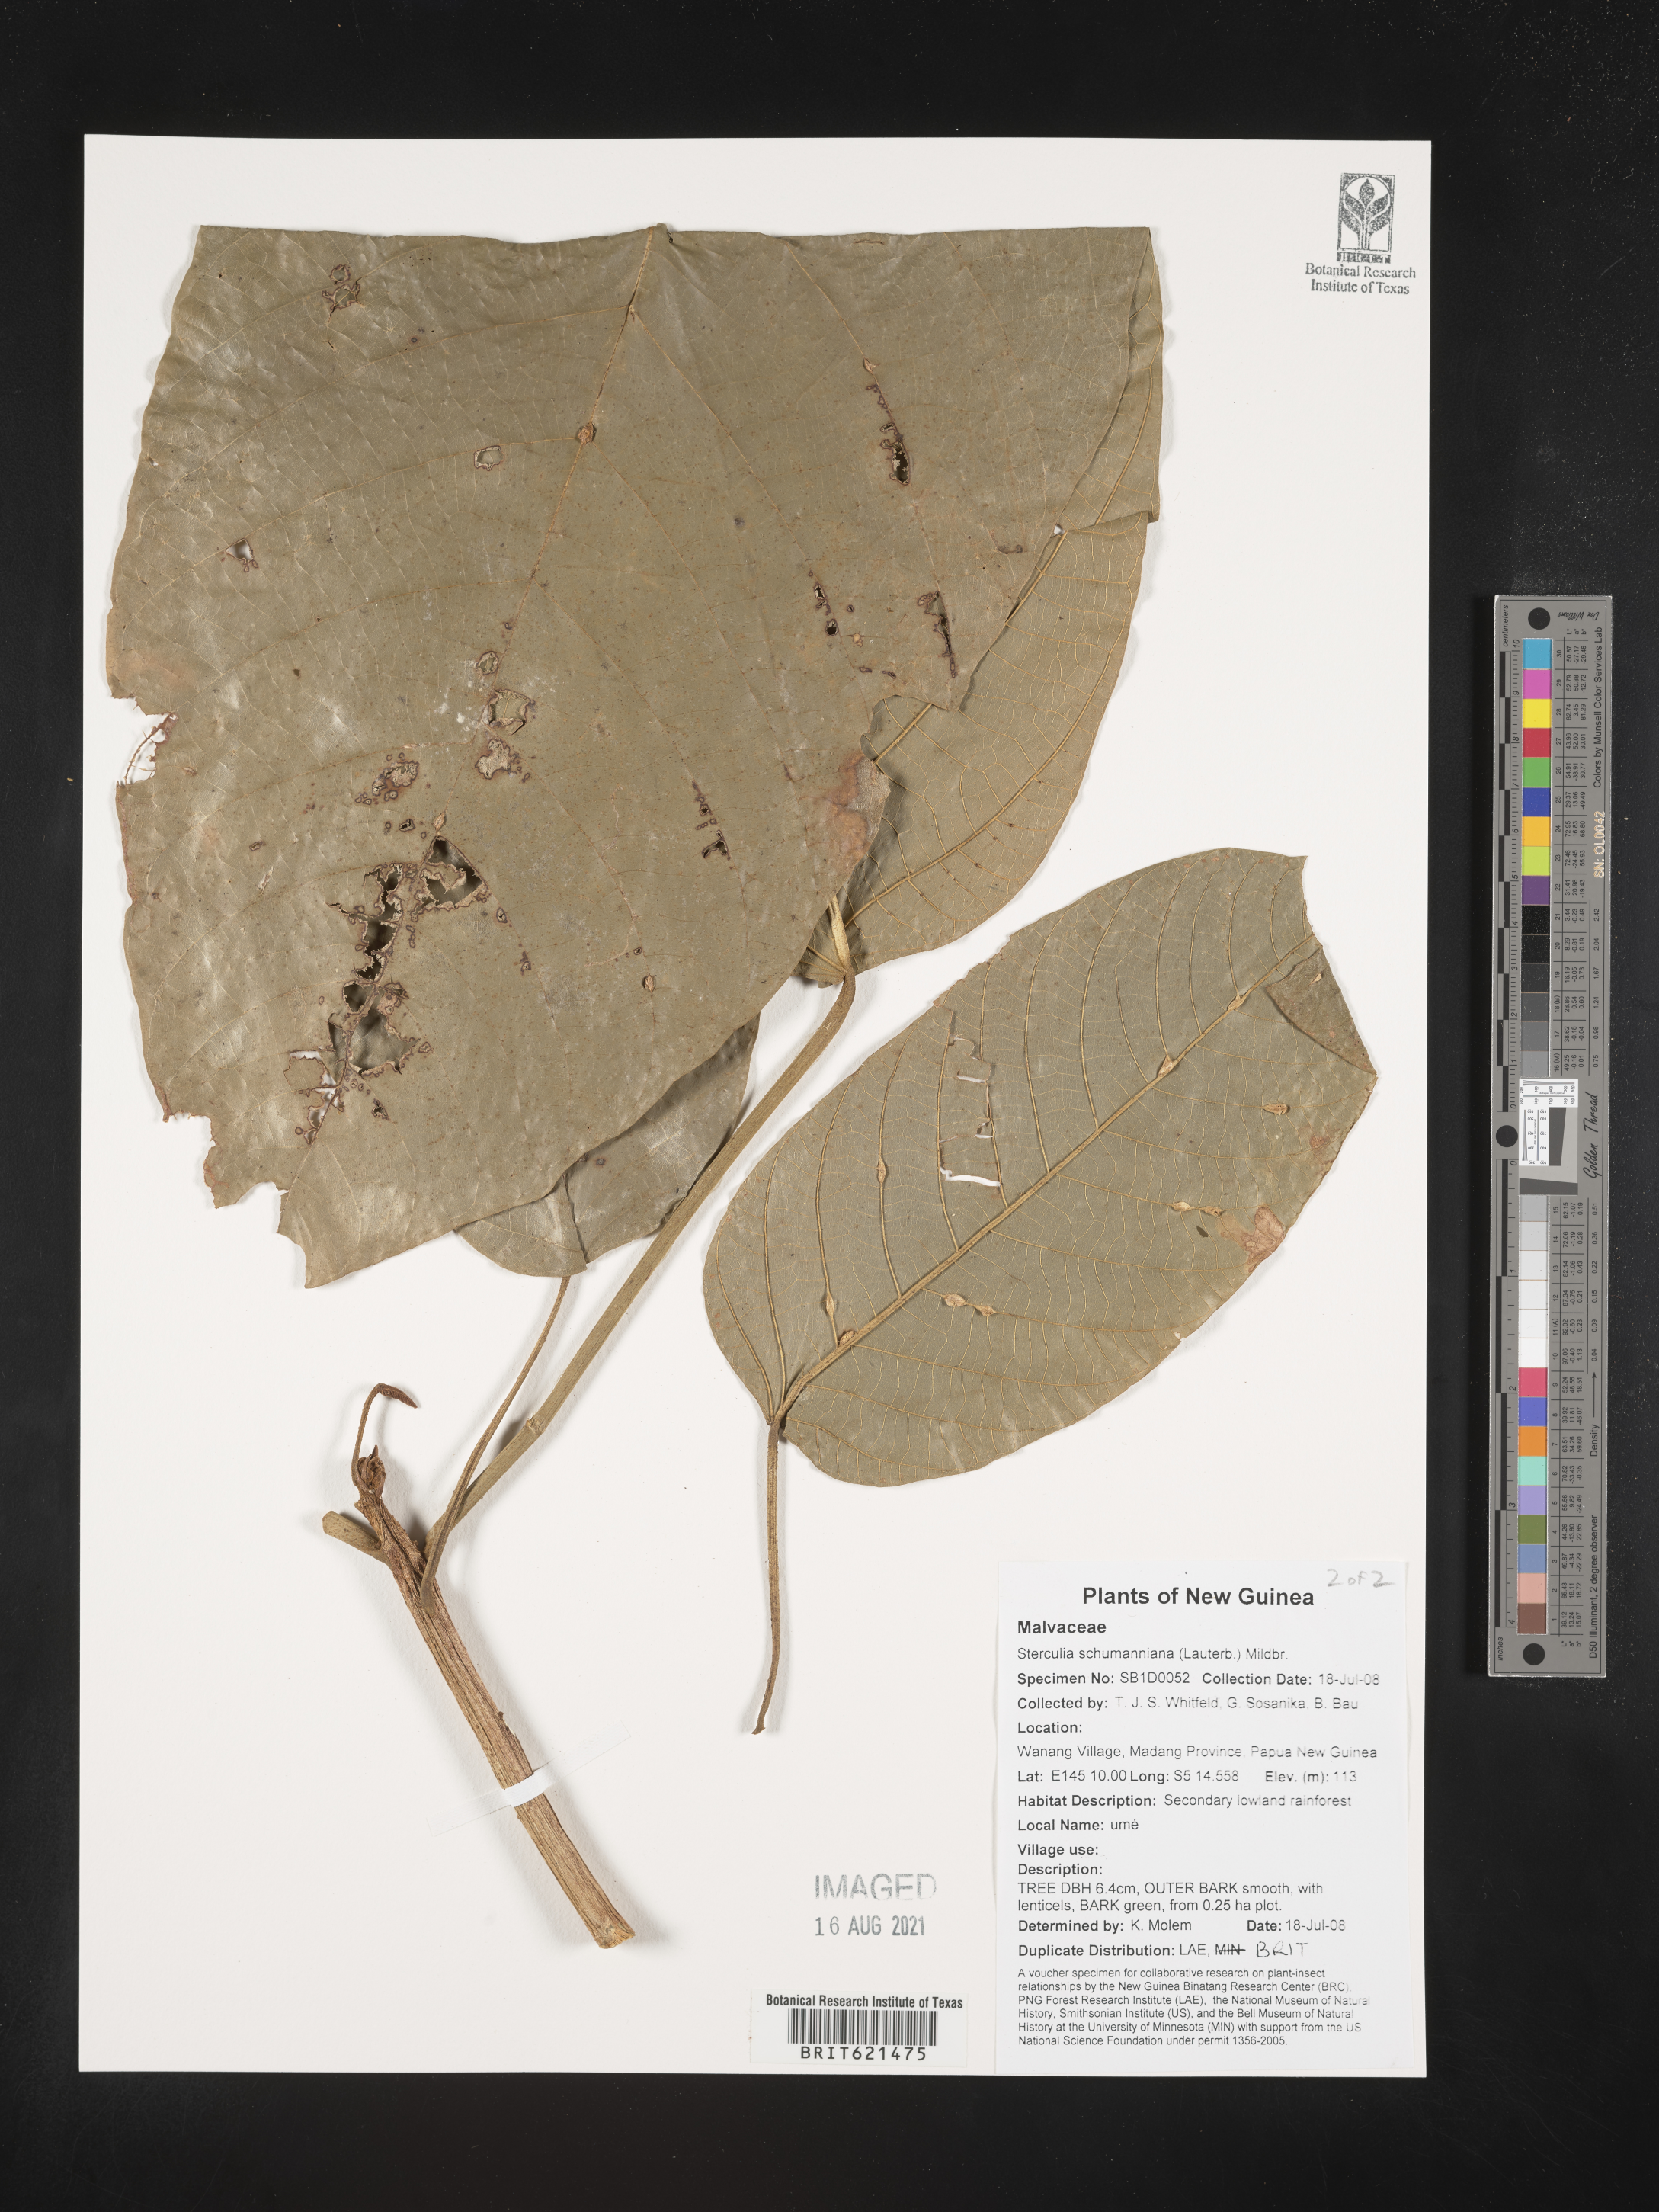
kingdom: Plantae
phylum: Tracheophyta
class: Magnoliopsida
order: Malvales
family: Malvaceae
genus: Sterculia
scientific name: Sterculia tantraensis
